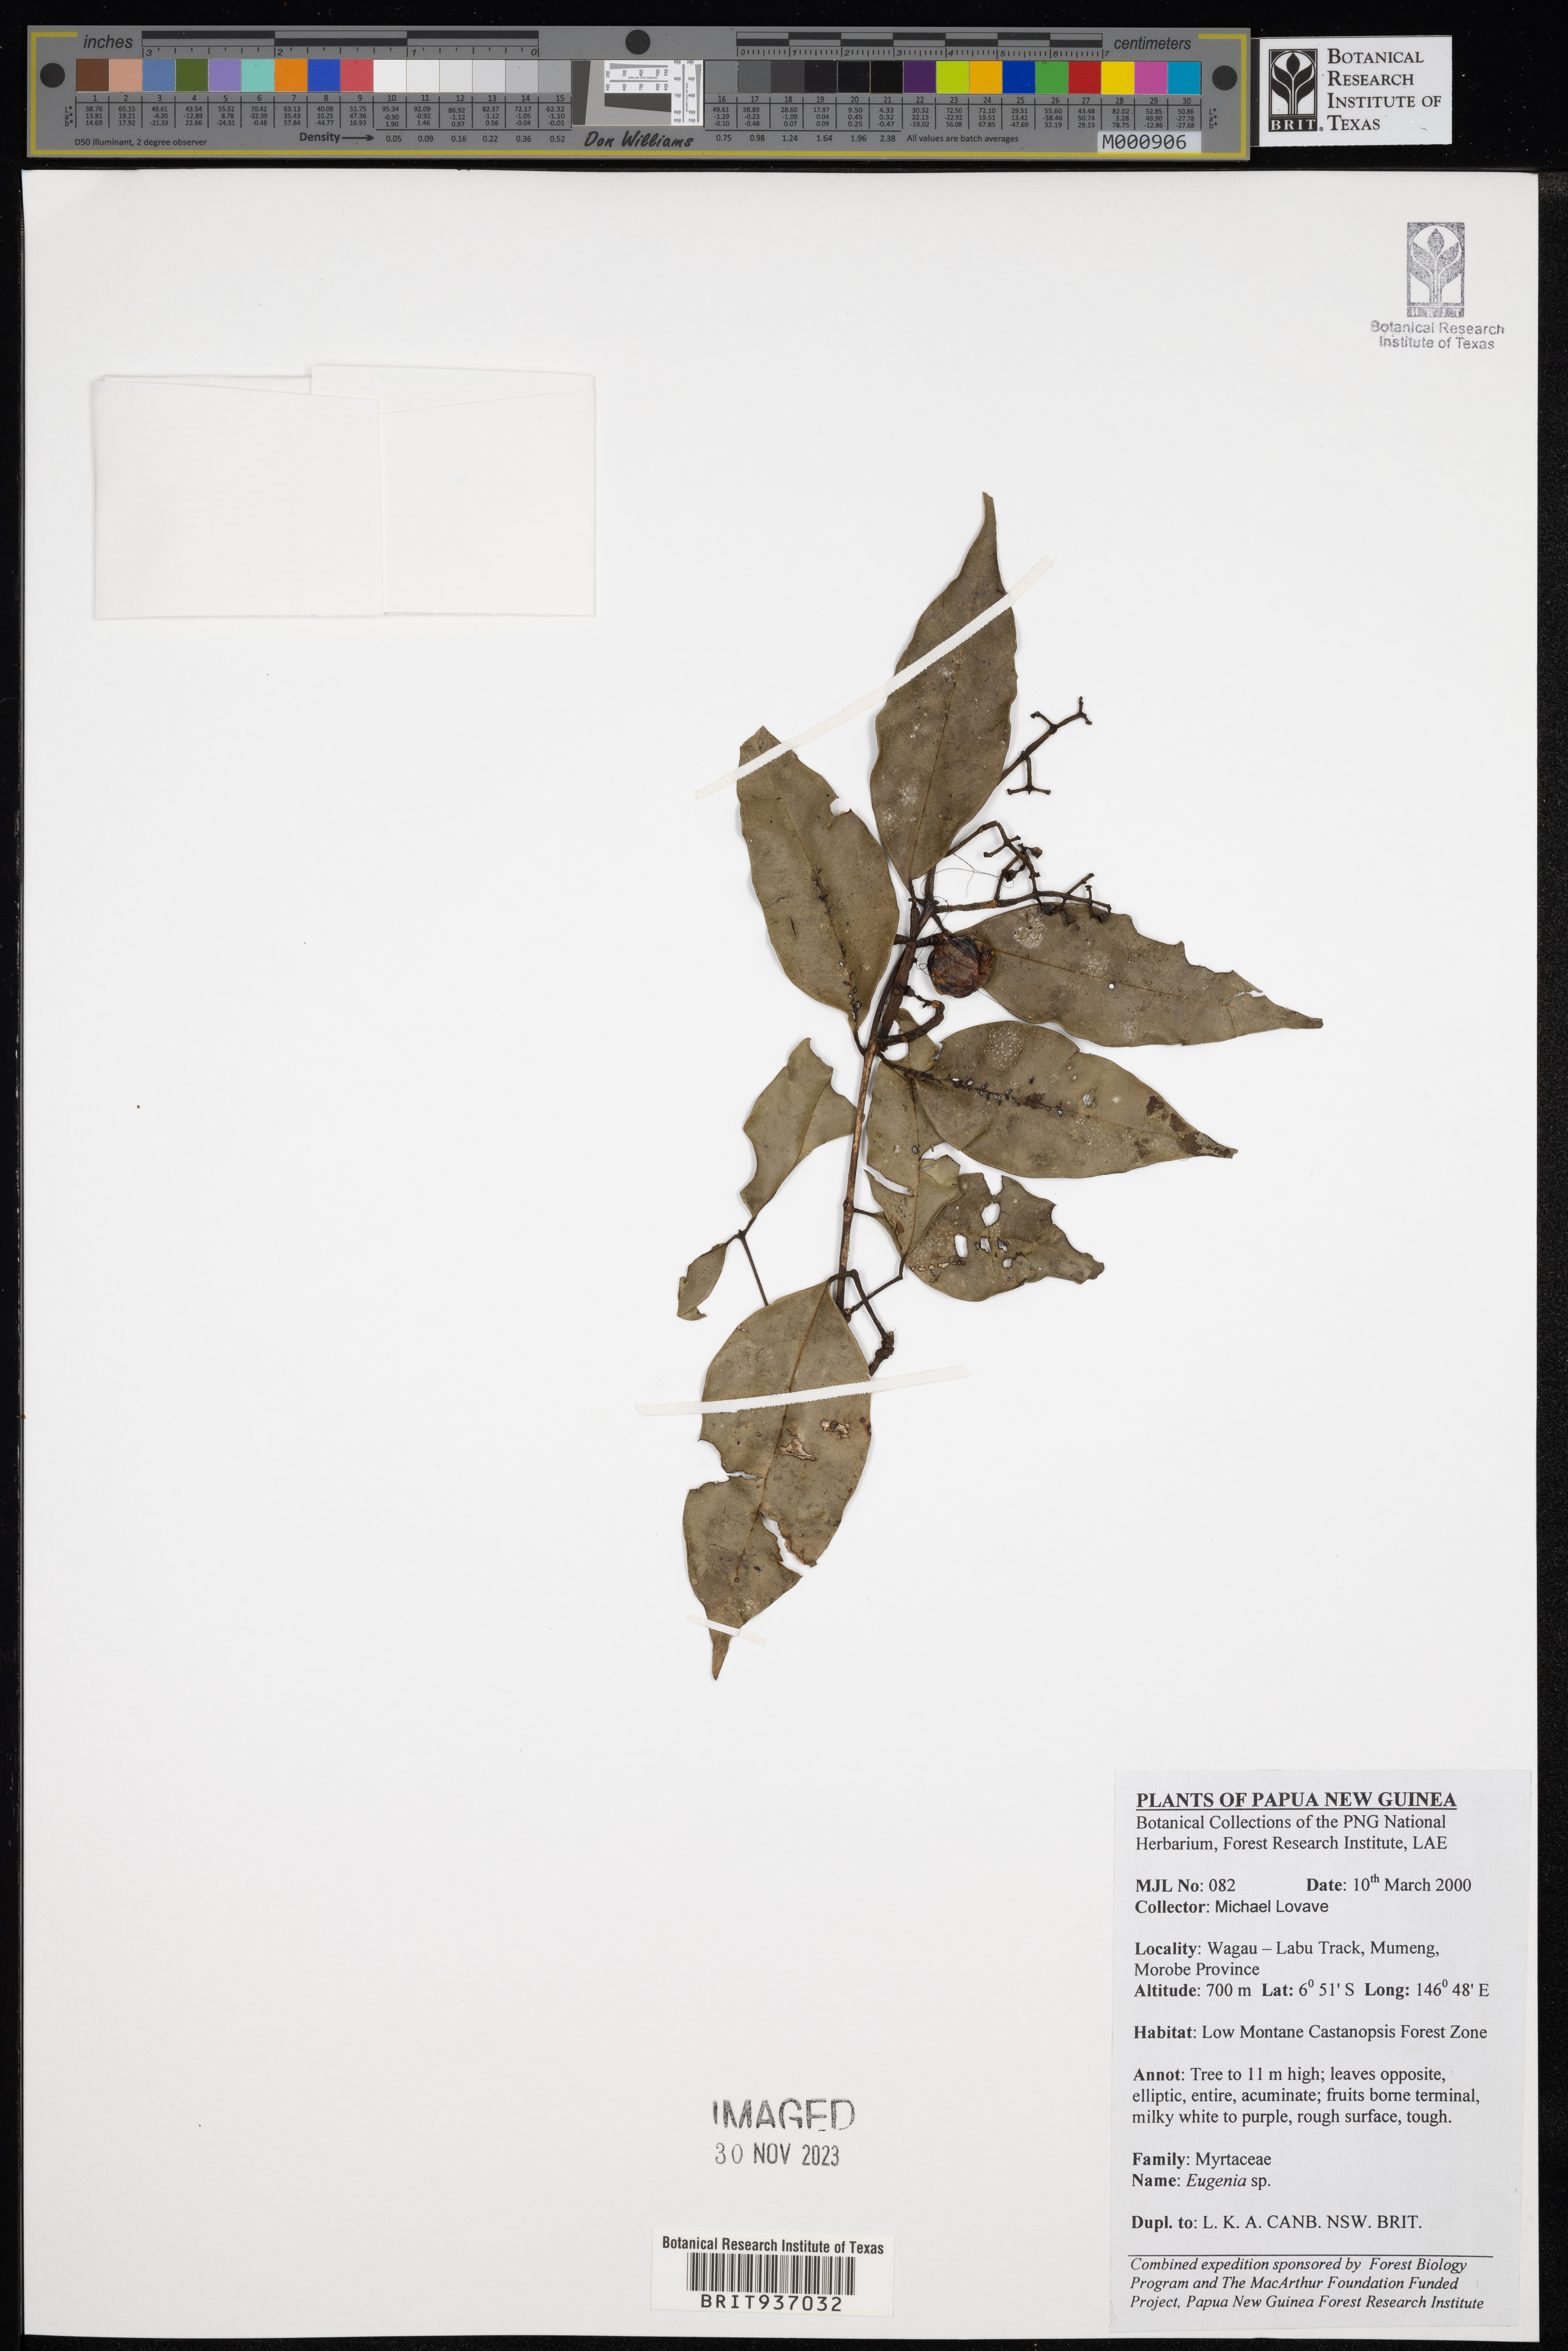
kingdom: Plantae
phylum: Tracheophyta
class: Magnoliopsida
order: Myrtales
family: Myrtaceae
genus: Eugenia
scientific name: Eugenia
